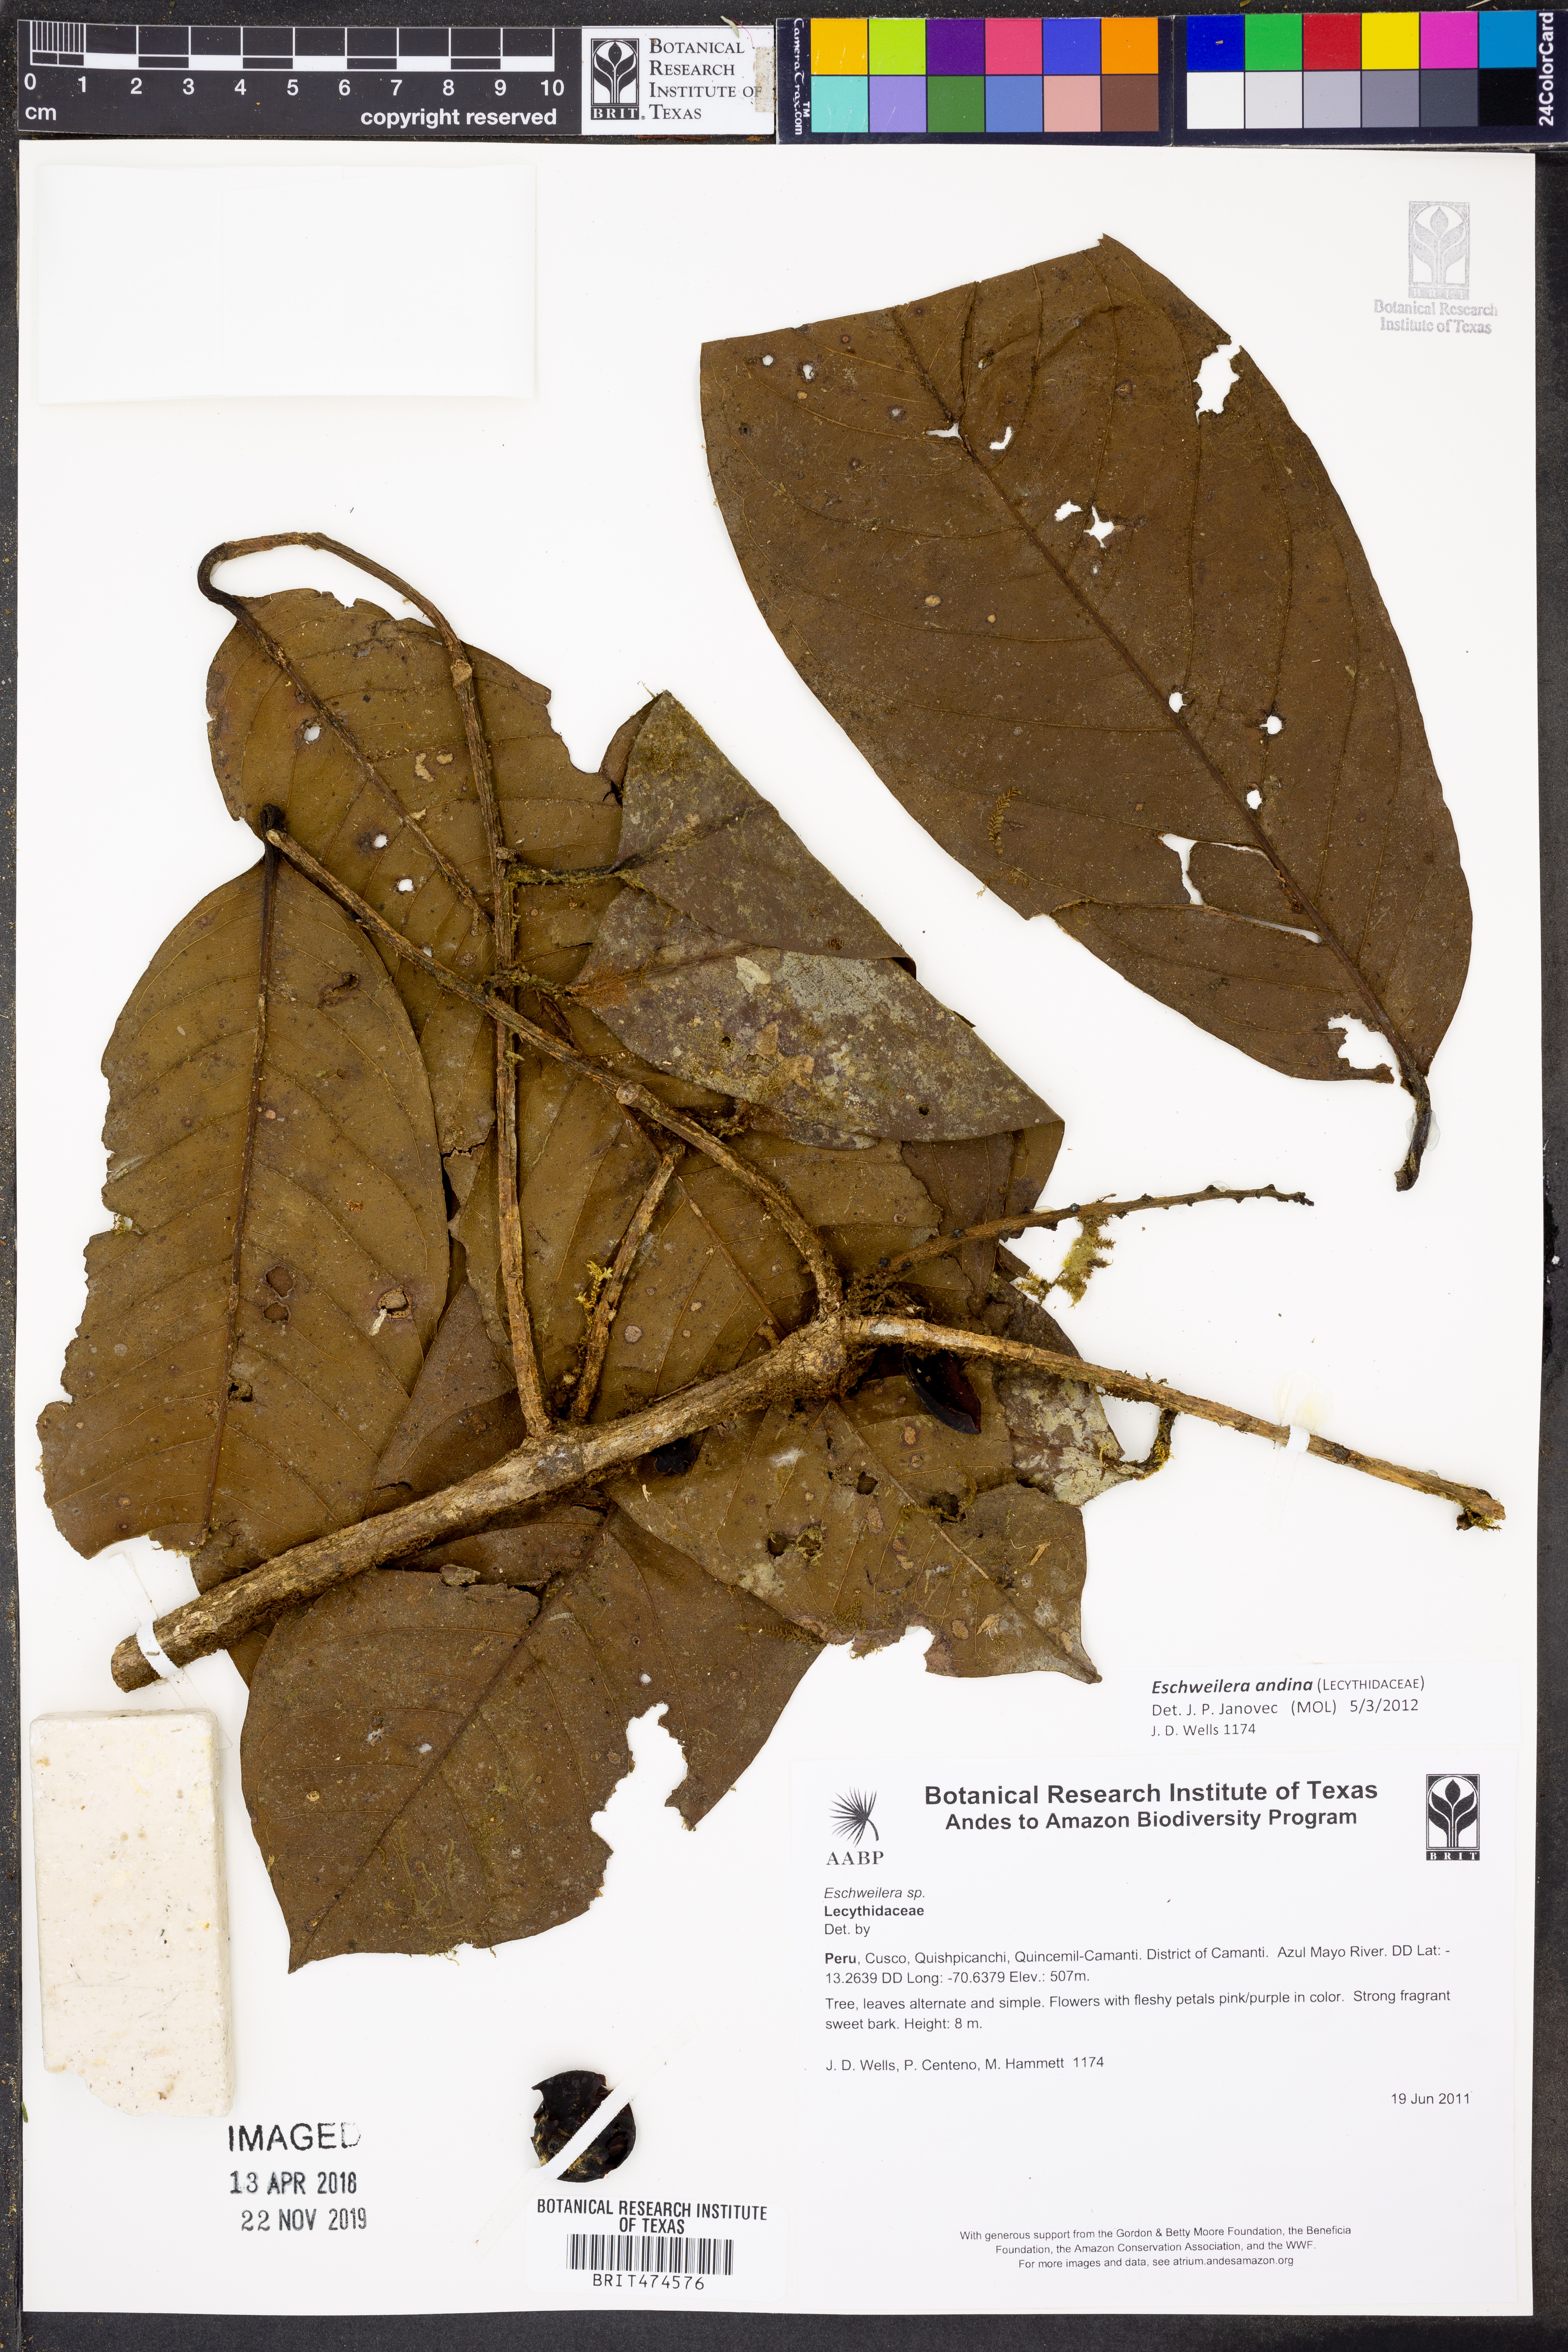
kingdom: Plantae
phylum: Tracheophyta
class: Magnoliopsida
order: Ericales
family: Lecythidaceae
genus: Eschweilera
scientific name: Eschweilera
